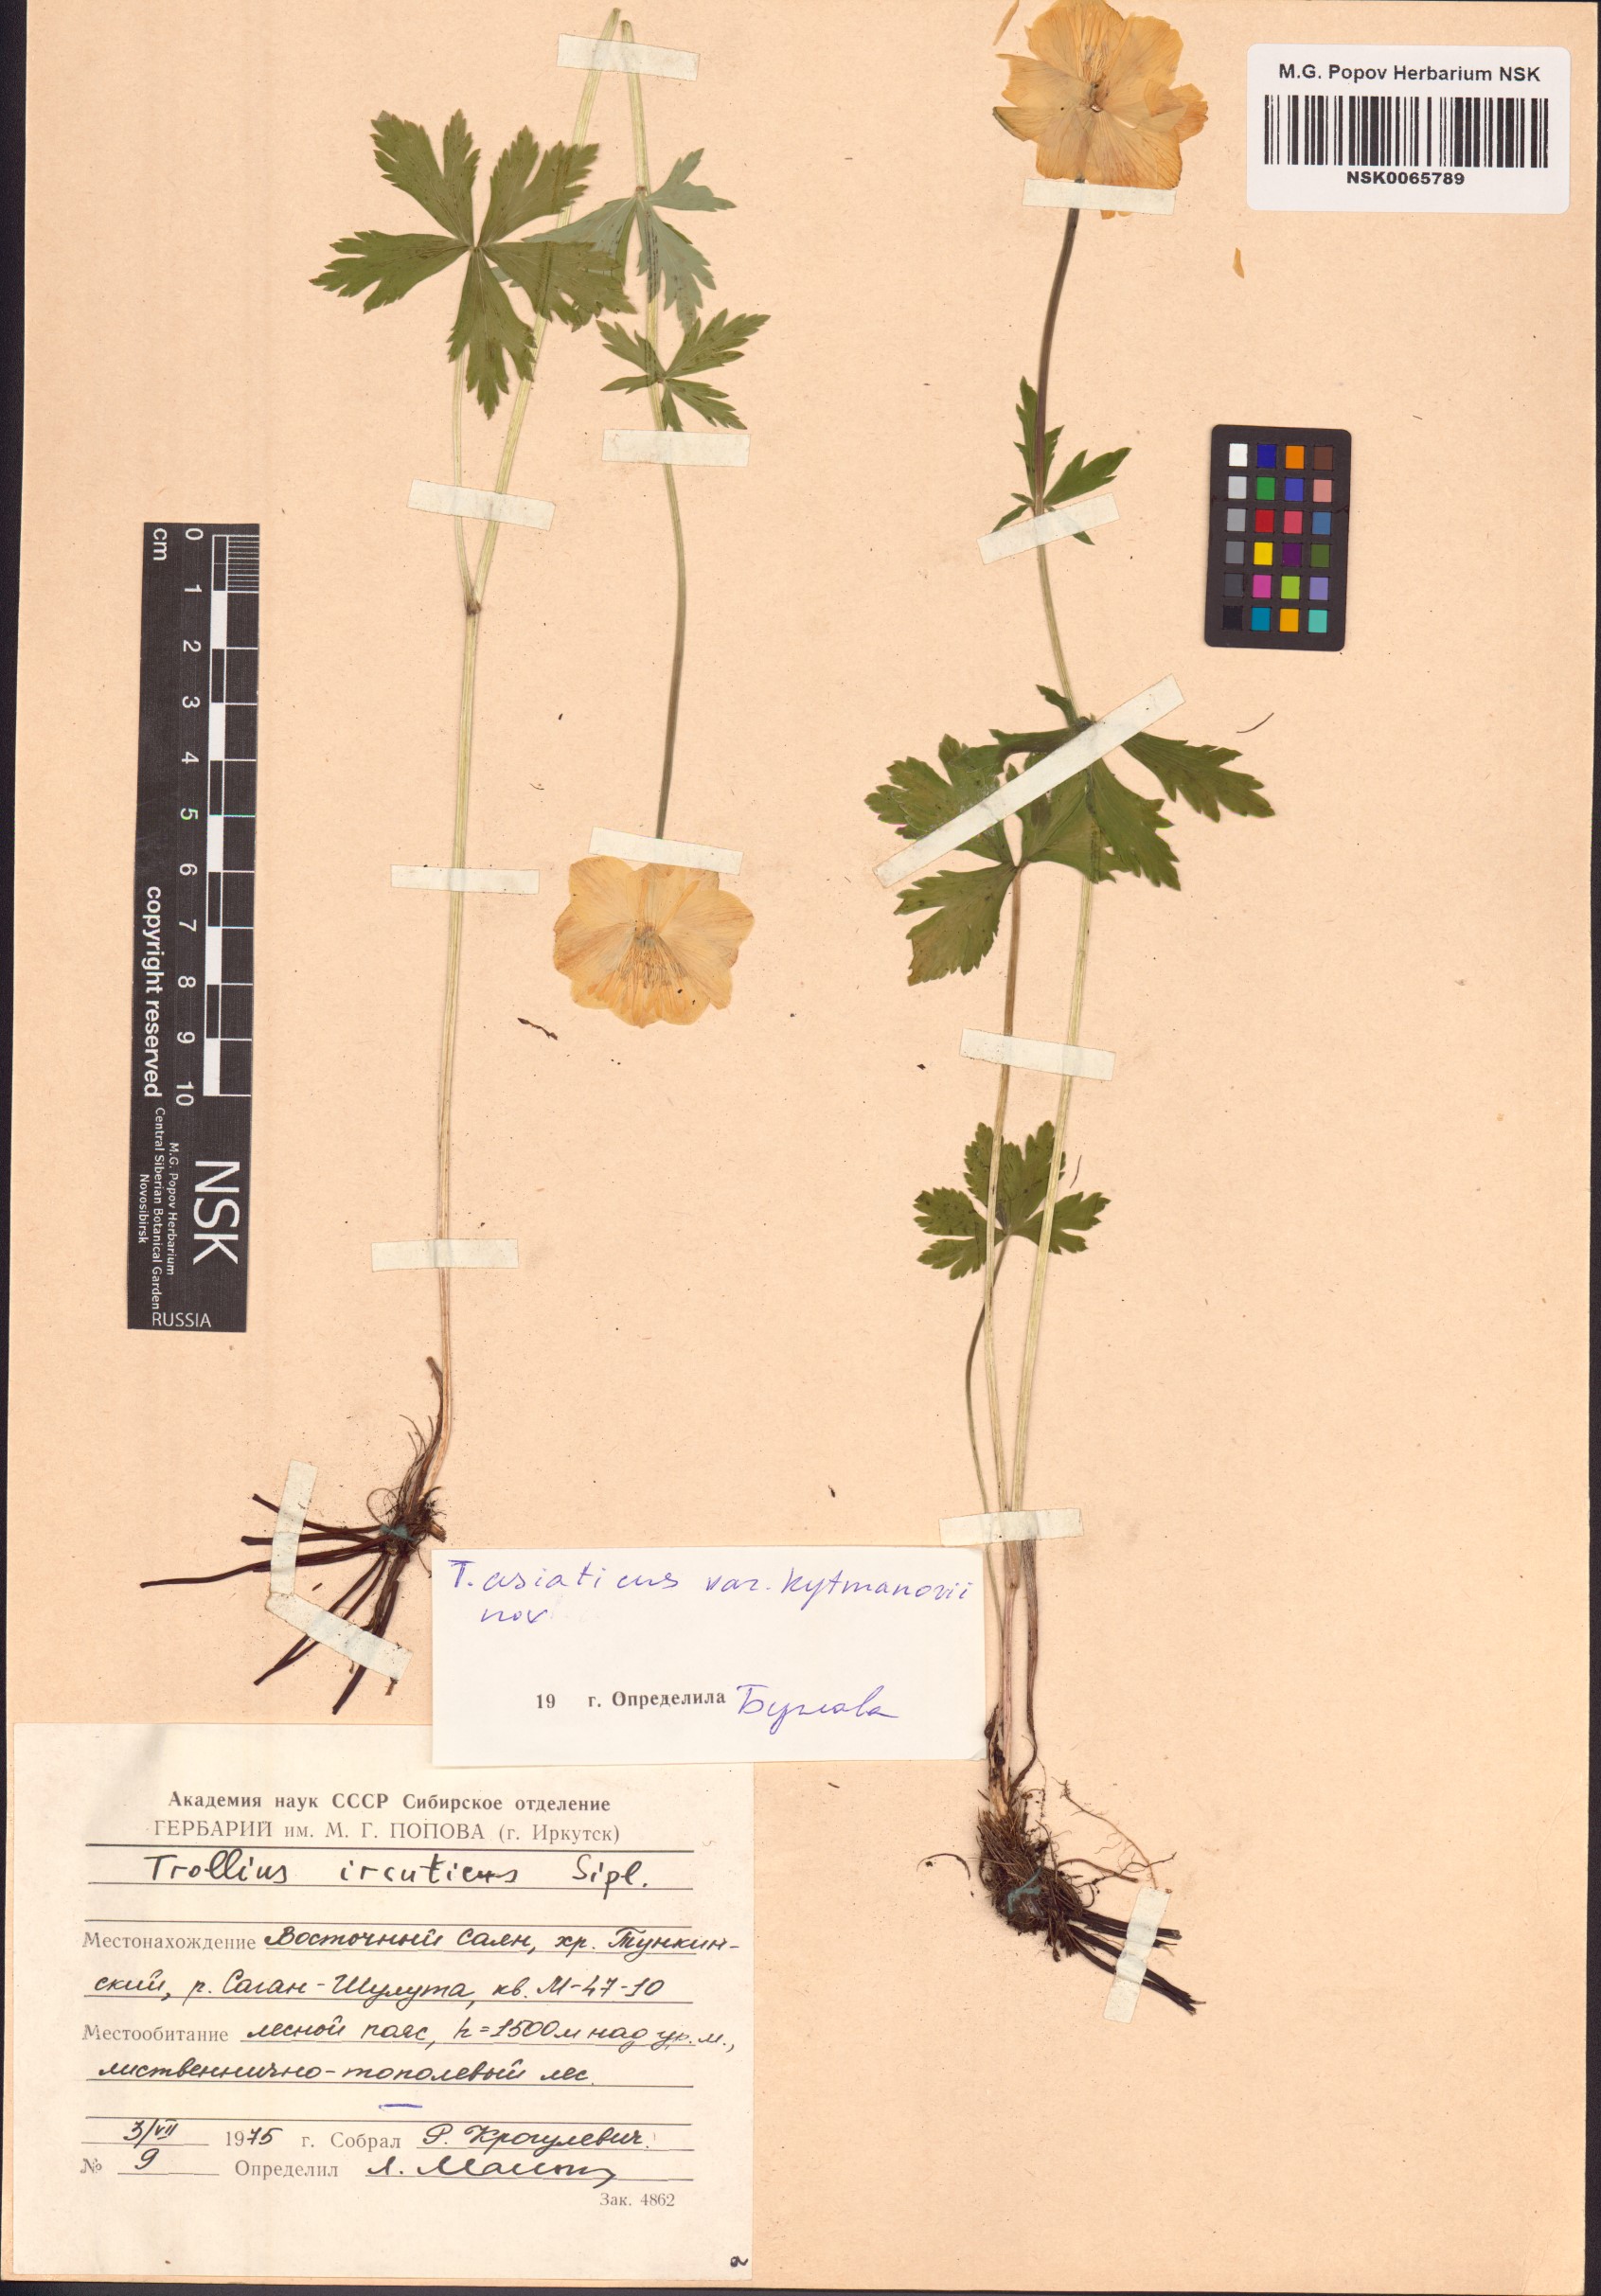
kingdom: Plantae
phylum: Tracheophyta
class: Magnoliopsida
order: Ranunculales
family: Ranunculaceae
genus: Trollius
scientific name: Trollius kytmanovii
